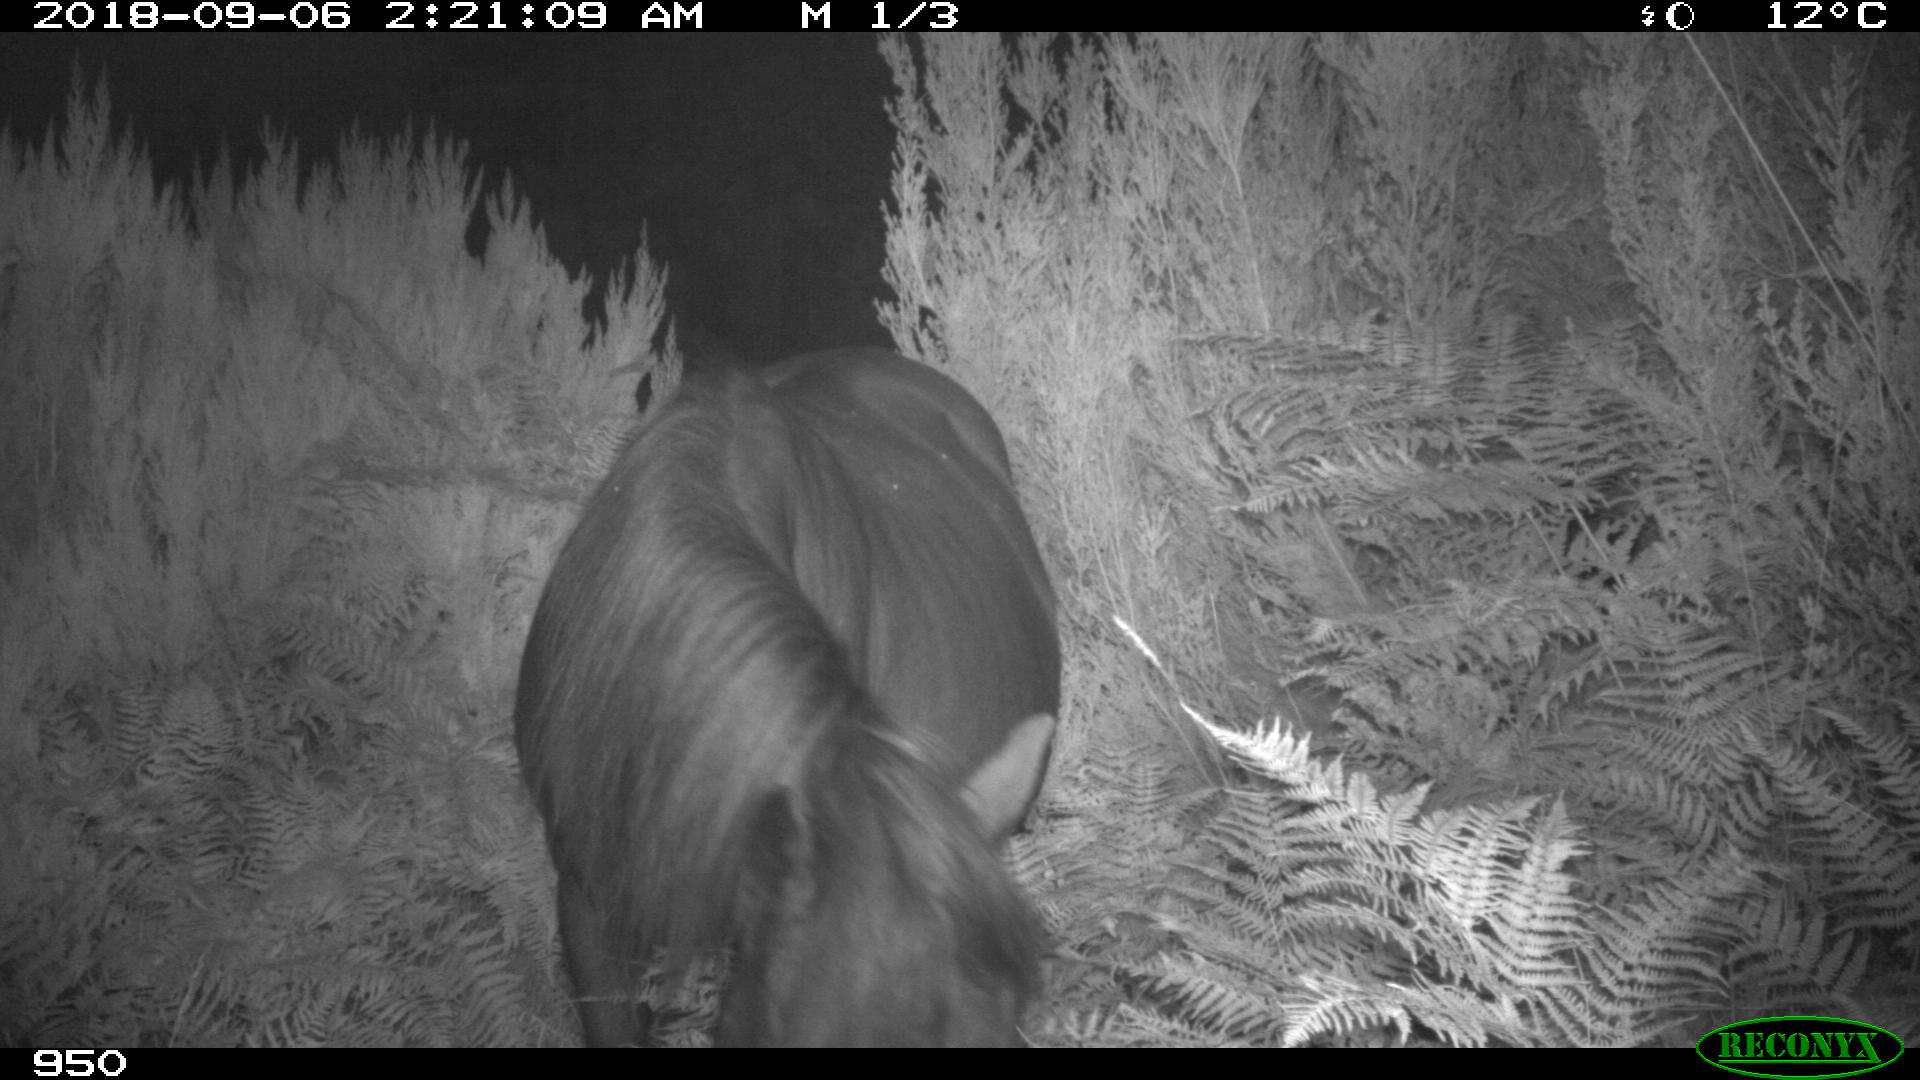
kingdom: Animalia
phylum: Chordata
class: Mammalia
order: Perissodactyla
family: Equidae
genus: Equus
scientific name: Equus caballus
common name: Horse
